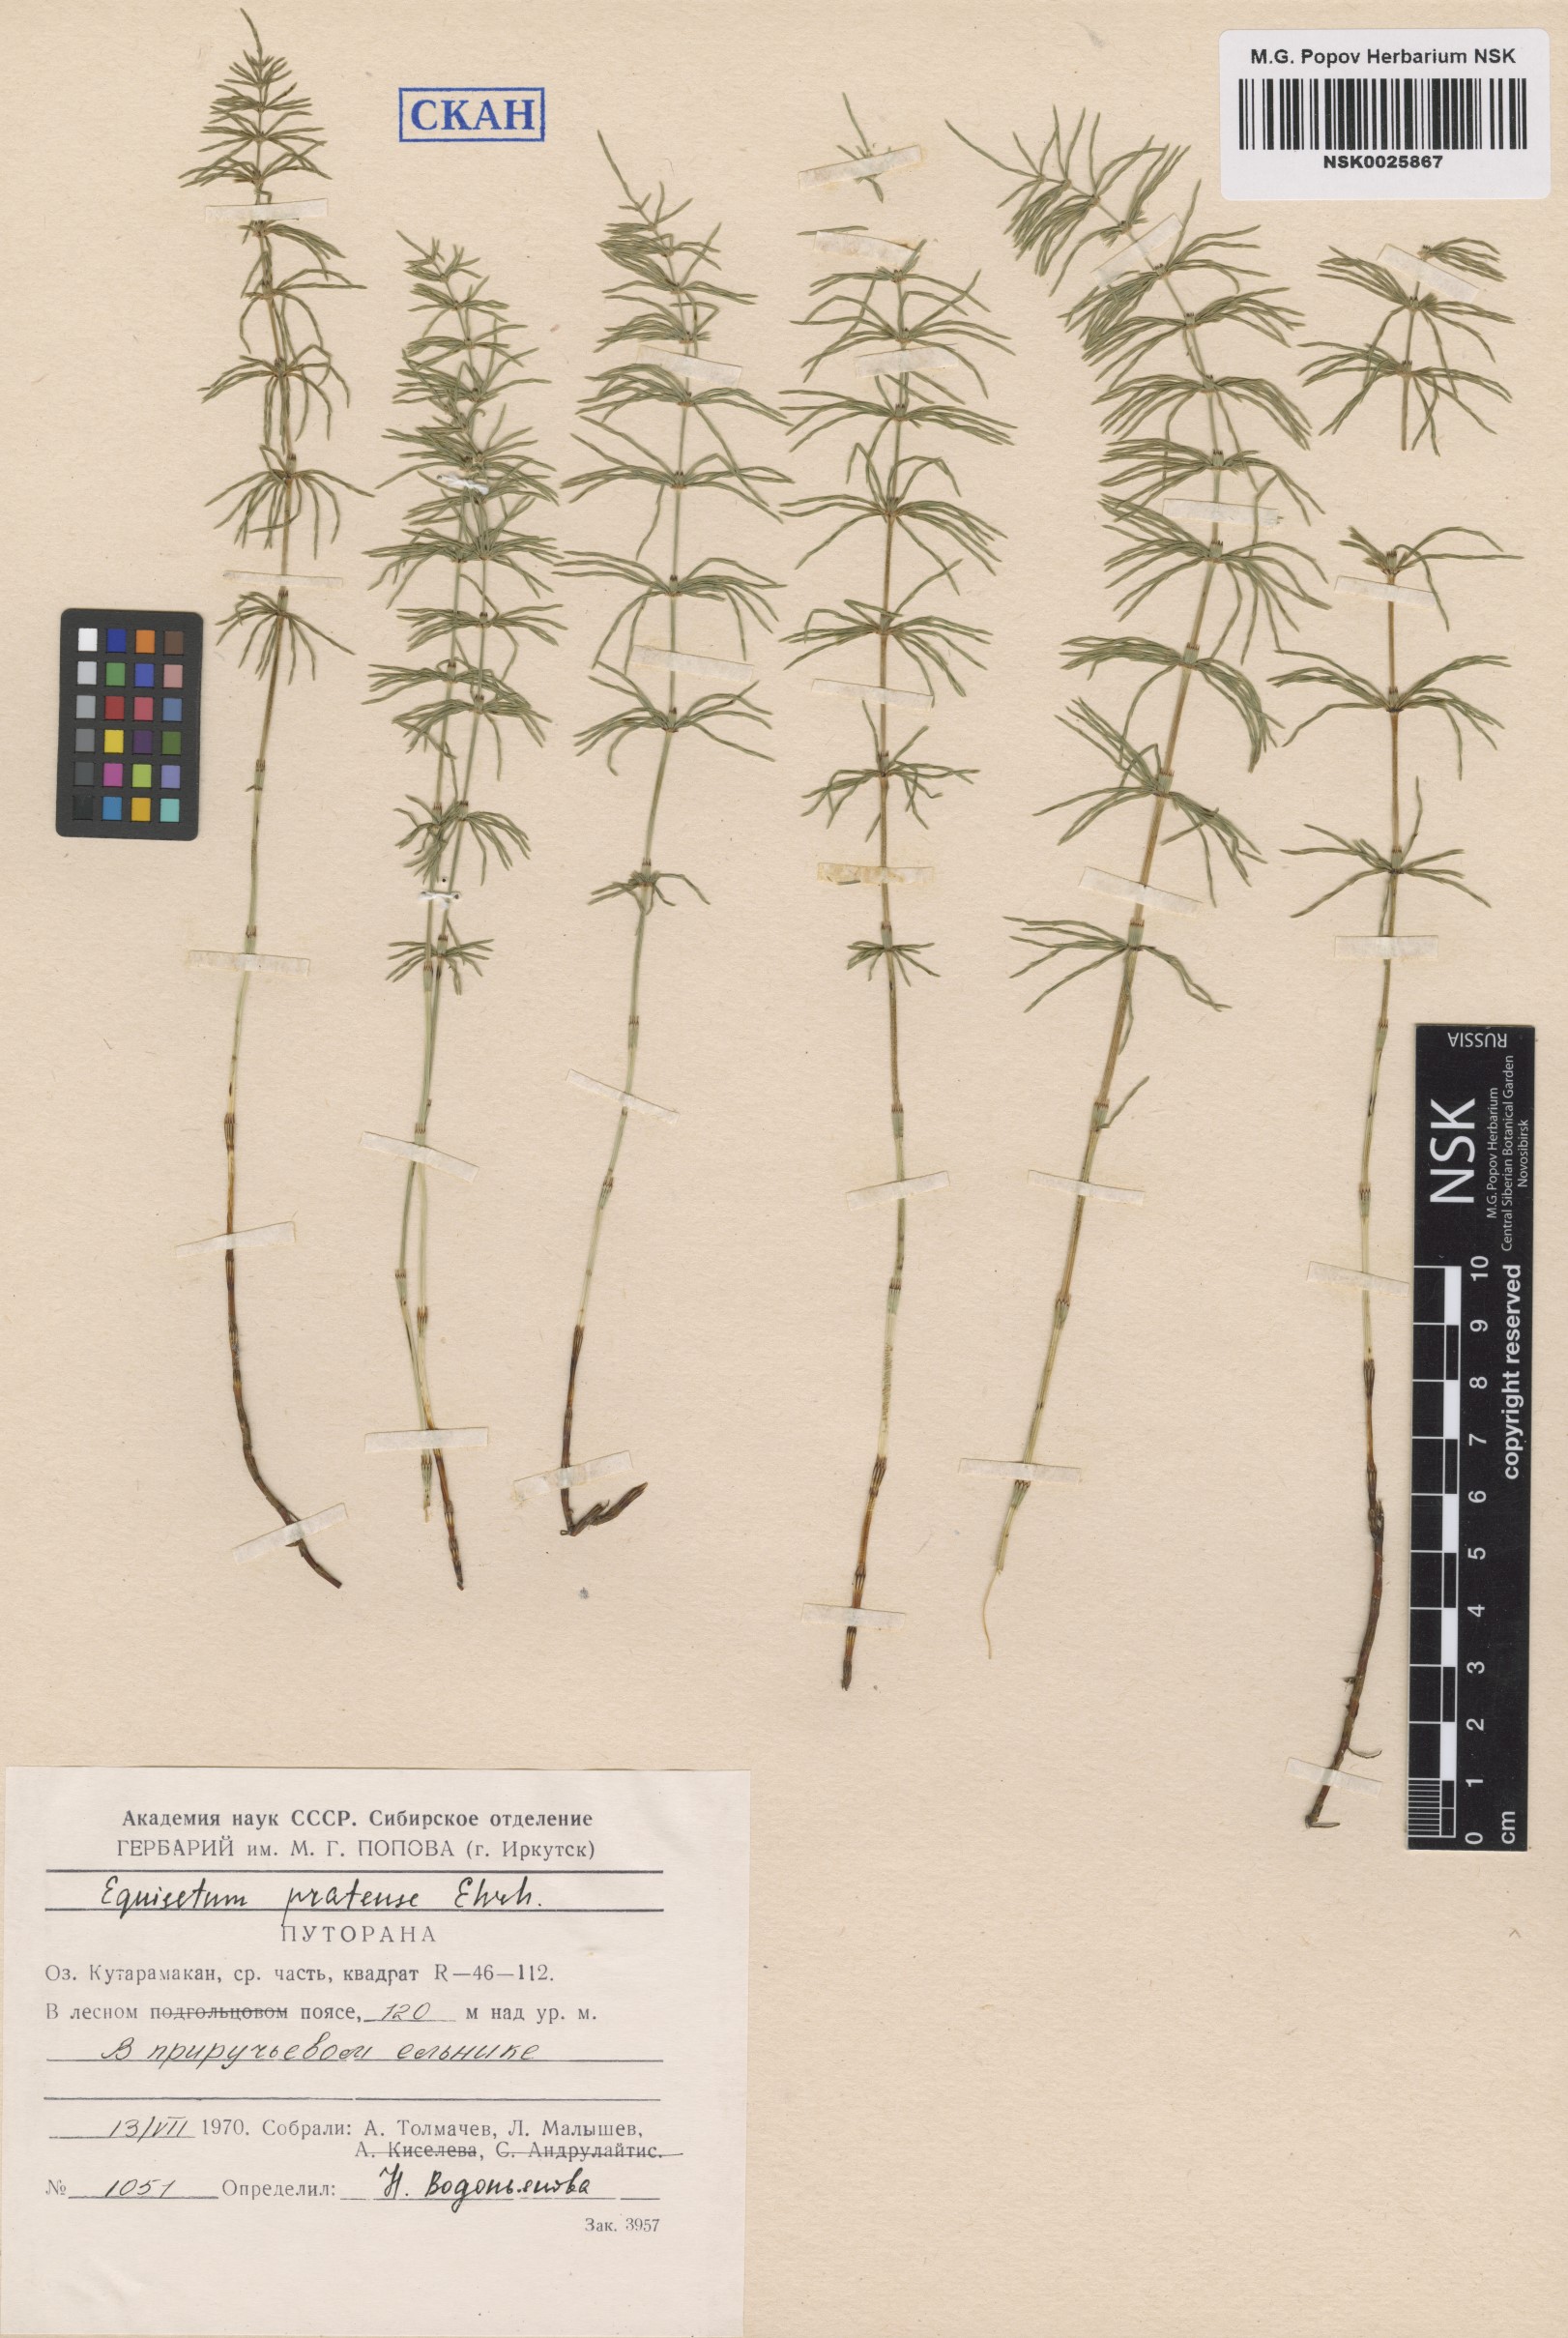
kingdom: Plantae
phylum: Tracheophyta
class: Polypodiopsida
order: Equisetales
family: Equisetaceae
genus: Equisetum
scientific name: Equisetum pratense
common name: Meadow horsetail
